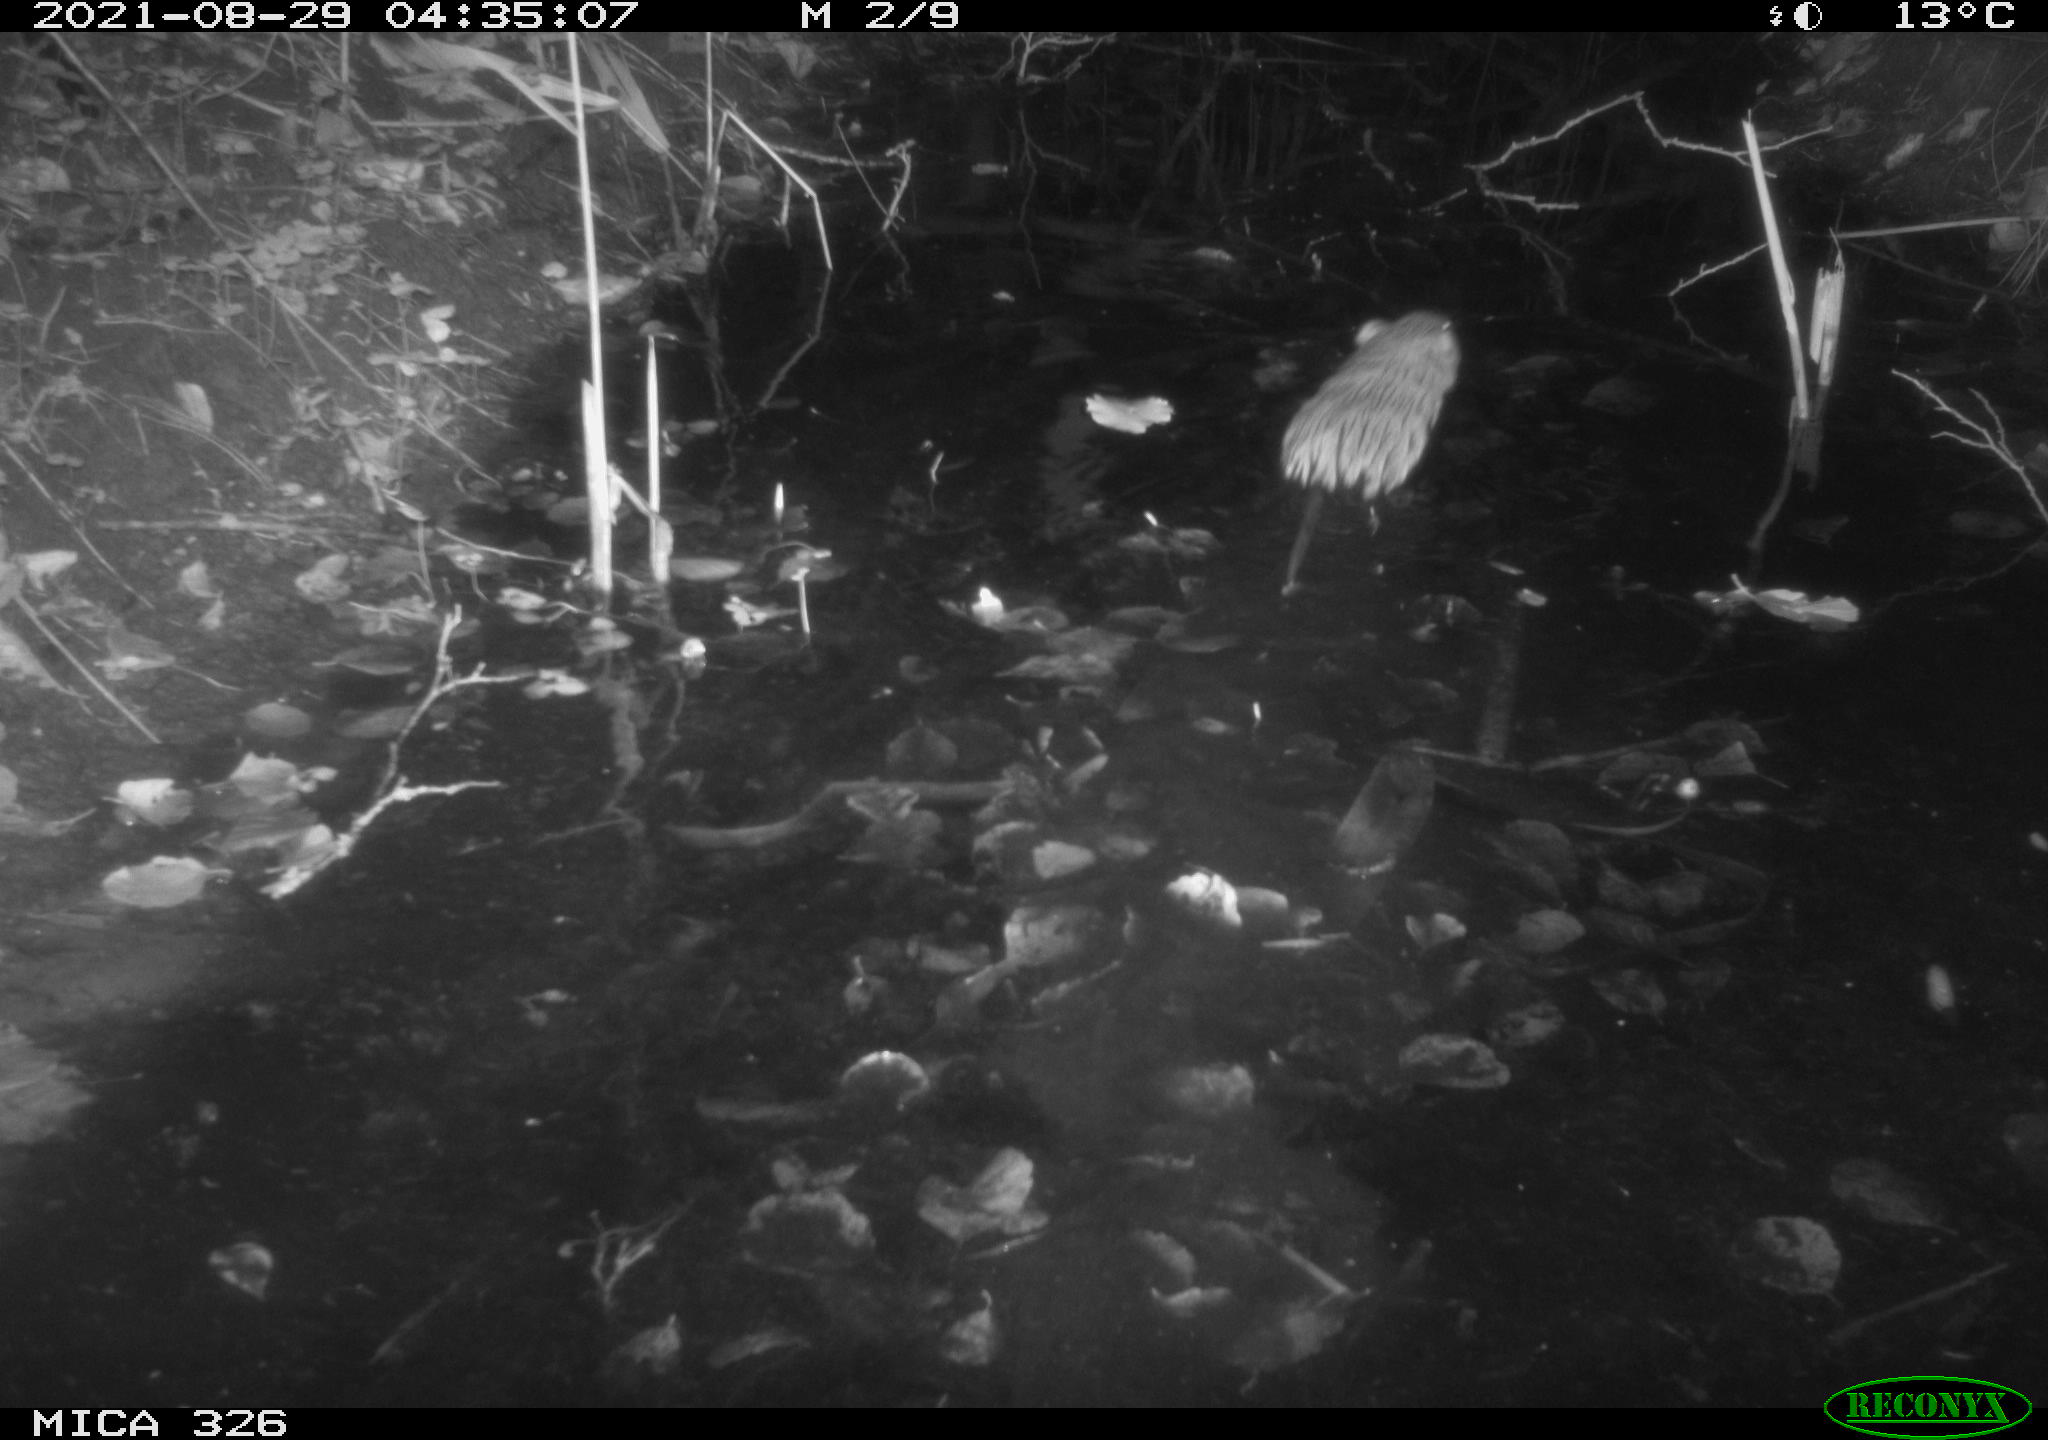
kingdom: Animalia
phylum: Chordata
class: Mammalia
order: Rodentia
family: Cricetidae
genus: Ondatra
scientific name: Ondatra zibethicus
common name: Muskrat
